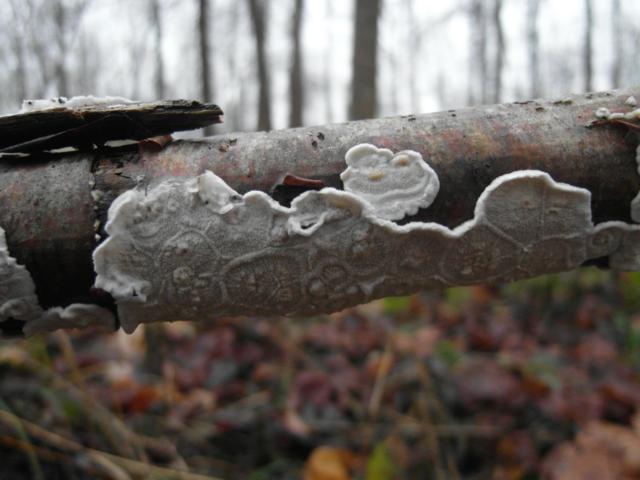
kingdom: Fungi
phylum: Basidiomycota
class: Agaricomycetes
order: Polyporales
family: Irpicaceae
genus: Byssomerulius
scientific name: Byssomerulius corium
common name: læder-åresvamp
